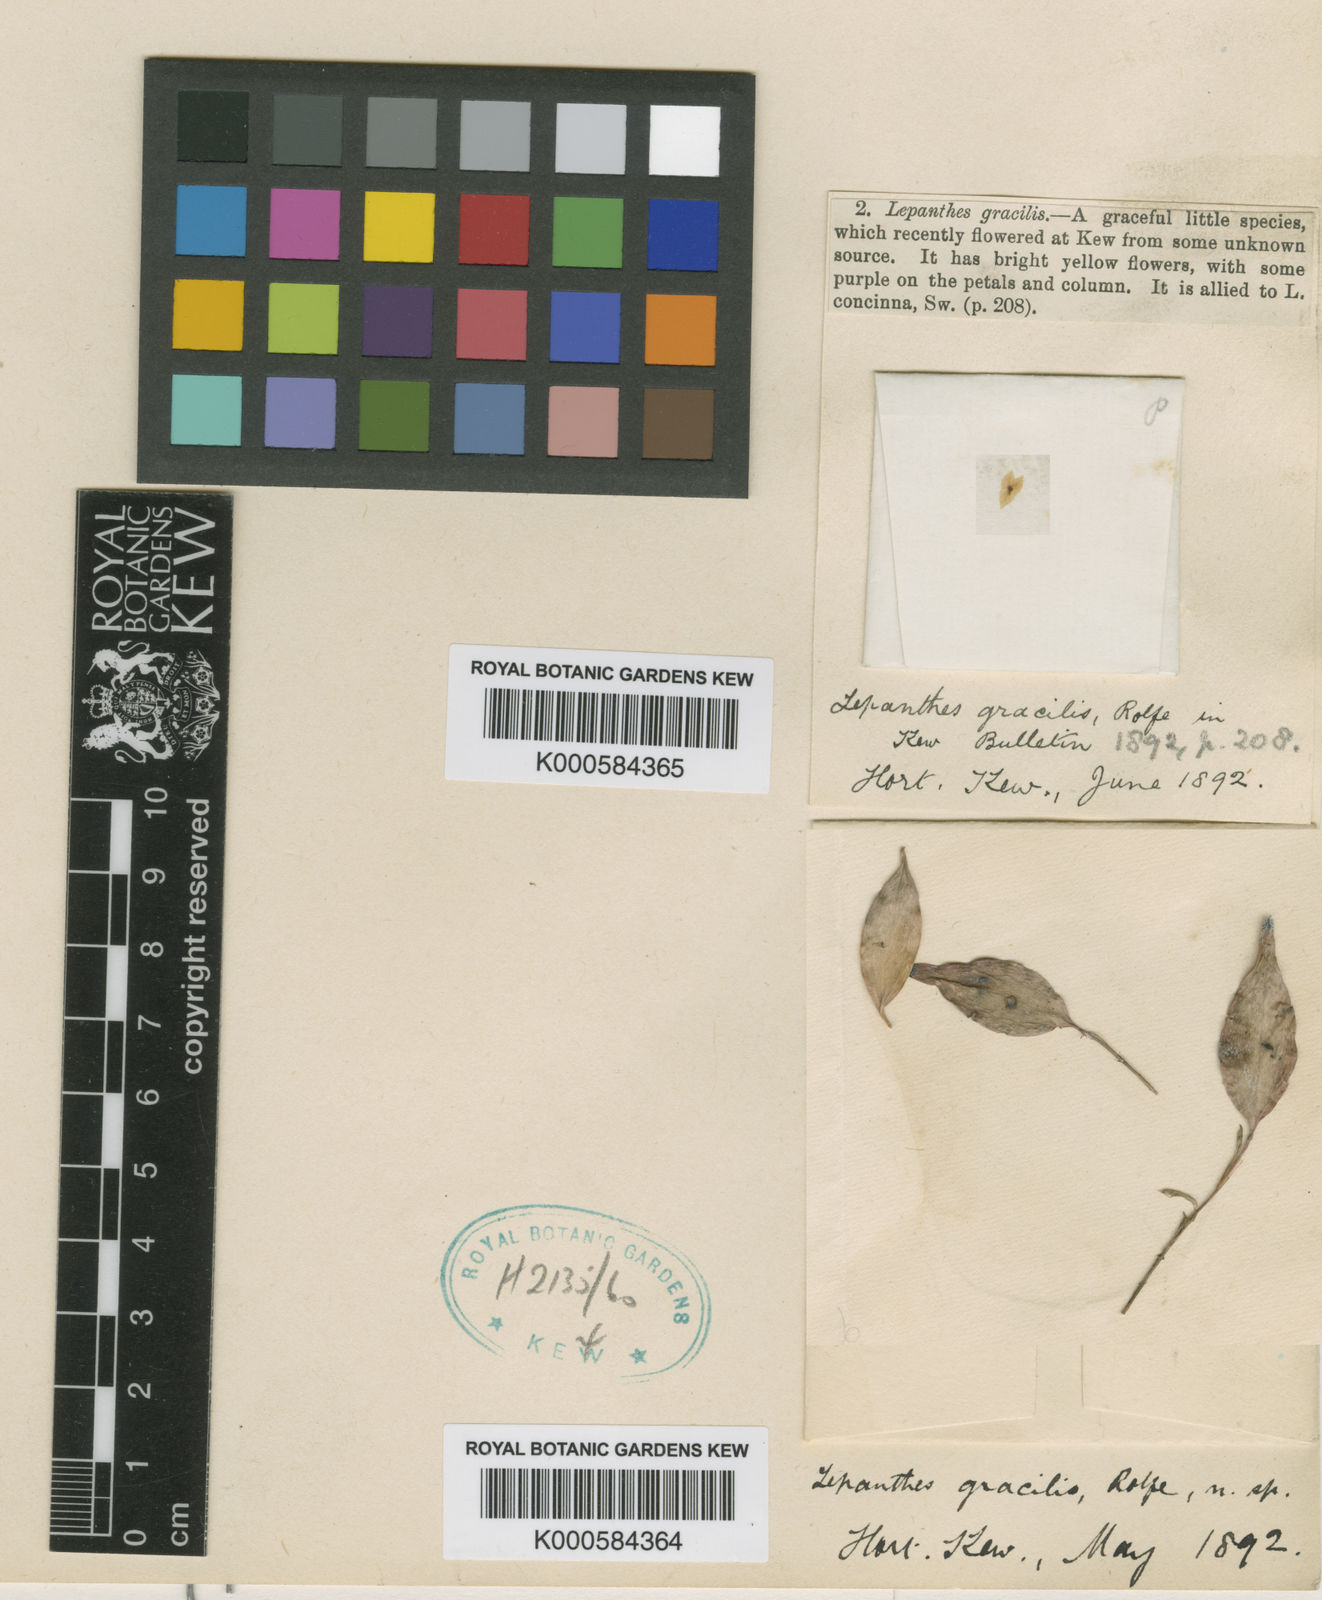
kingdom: Plantae
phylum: Tracheophyta
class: Liliopsida
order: Asparagales
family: Orchidaceae
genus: Lepanthes
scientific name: Lepanthes gracilis
